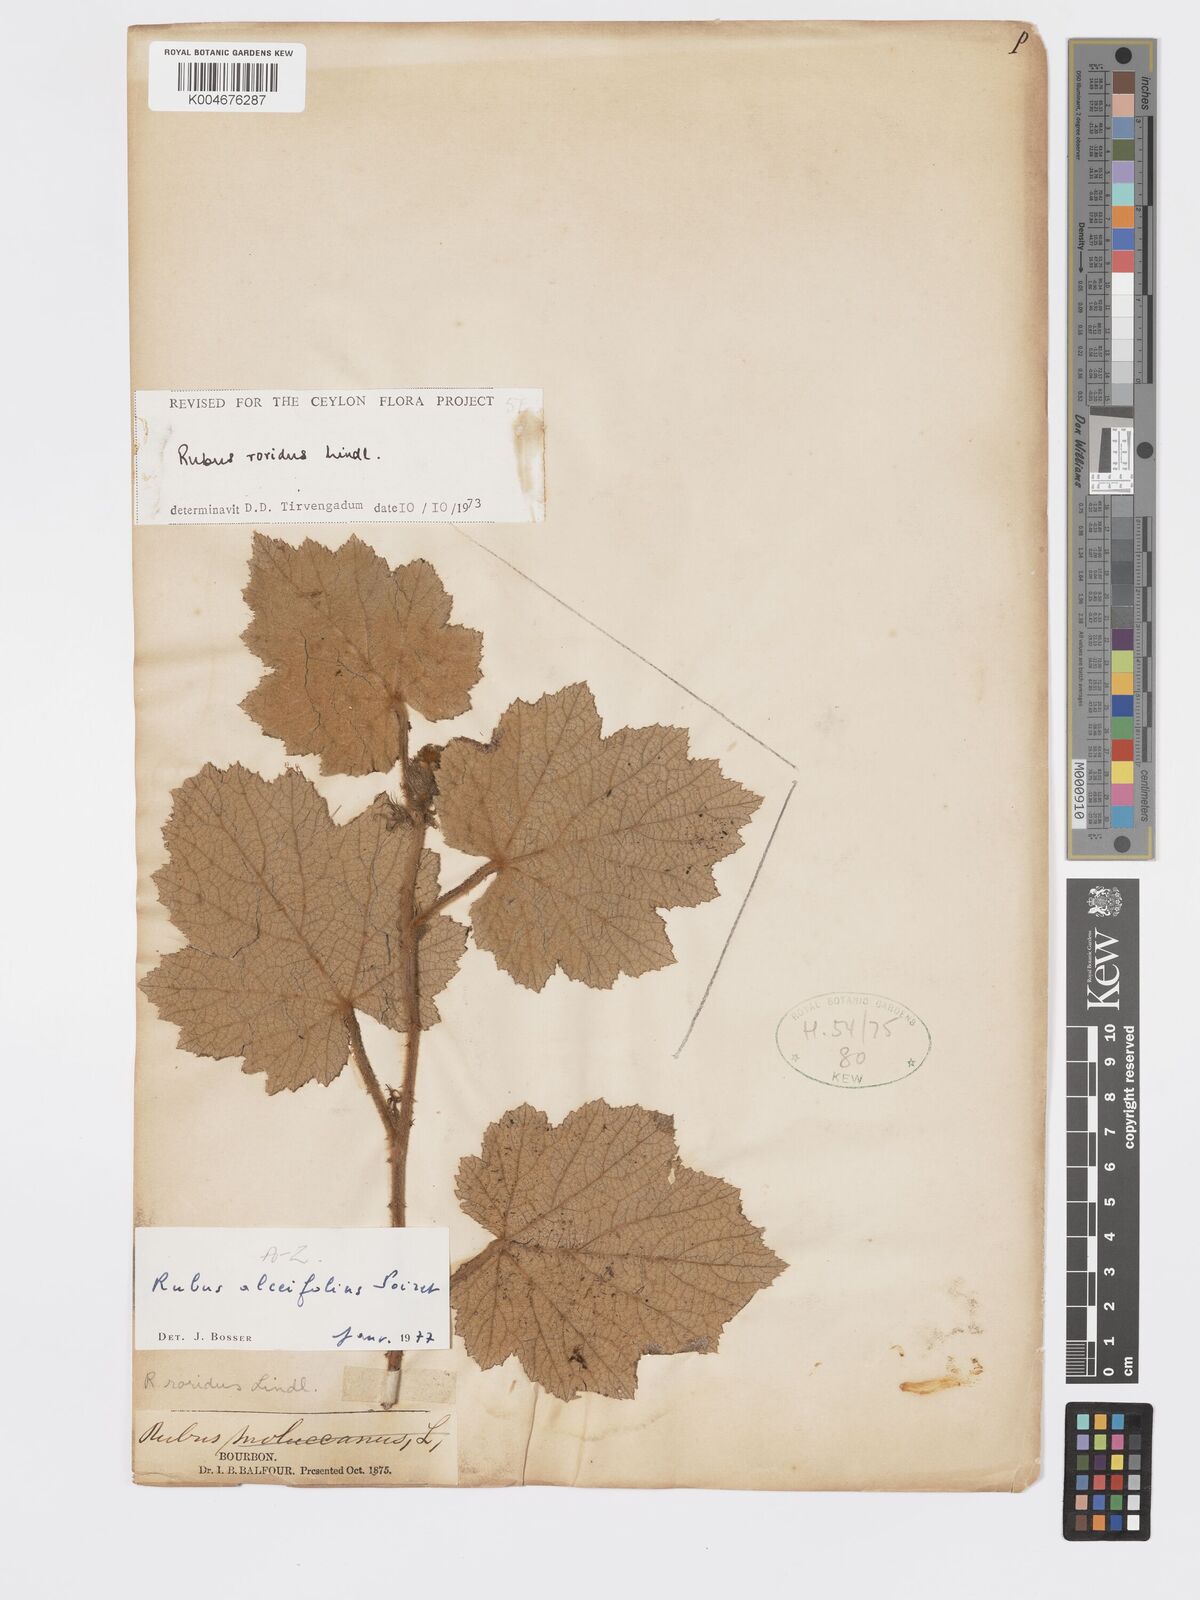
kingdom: Plantae
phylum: Tracheophyta
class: Magnoliopsida
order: Rosales
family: Rosaceae
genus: Rubus
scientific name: Rubus alceifolius
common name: Giant bramble
